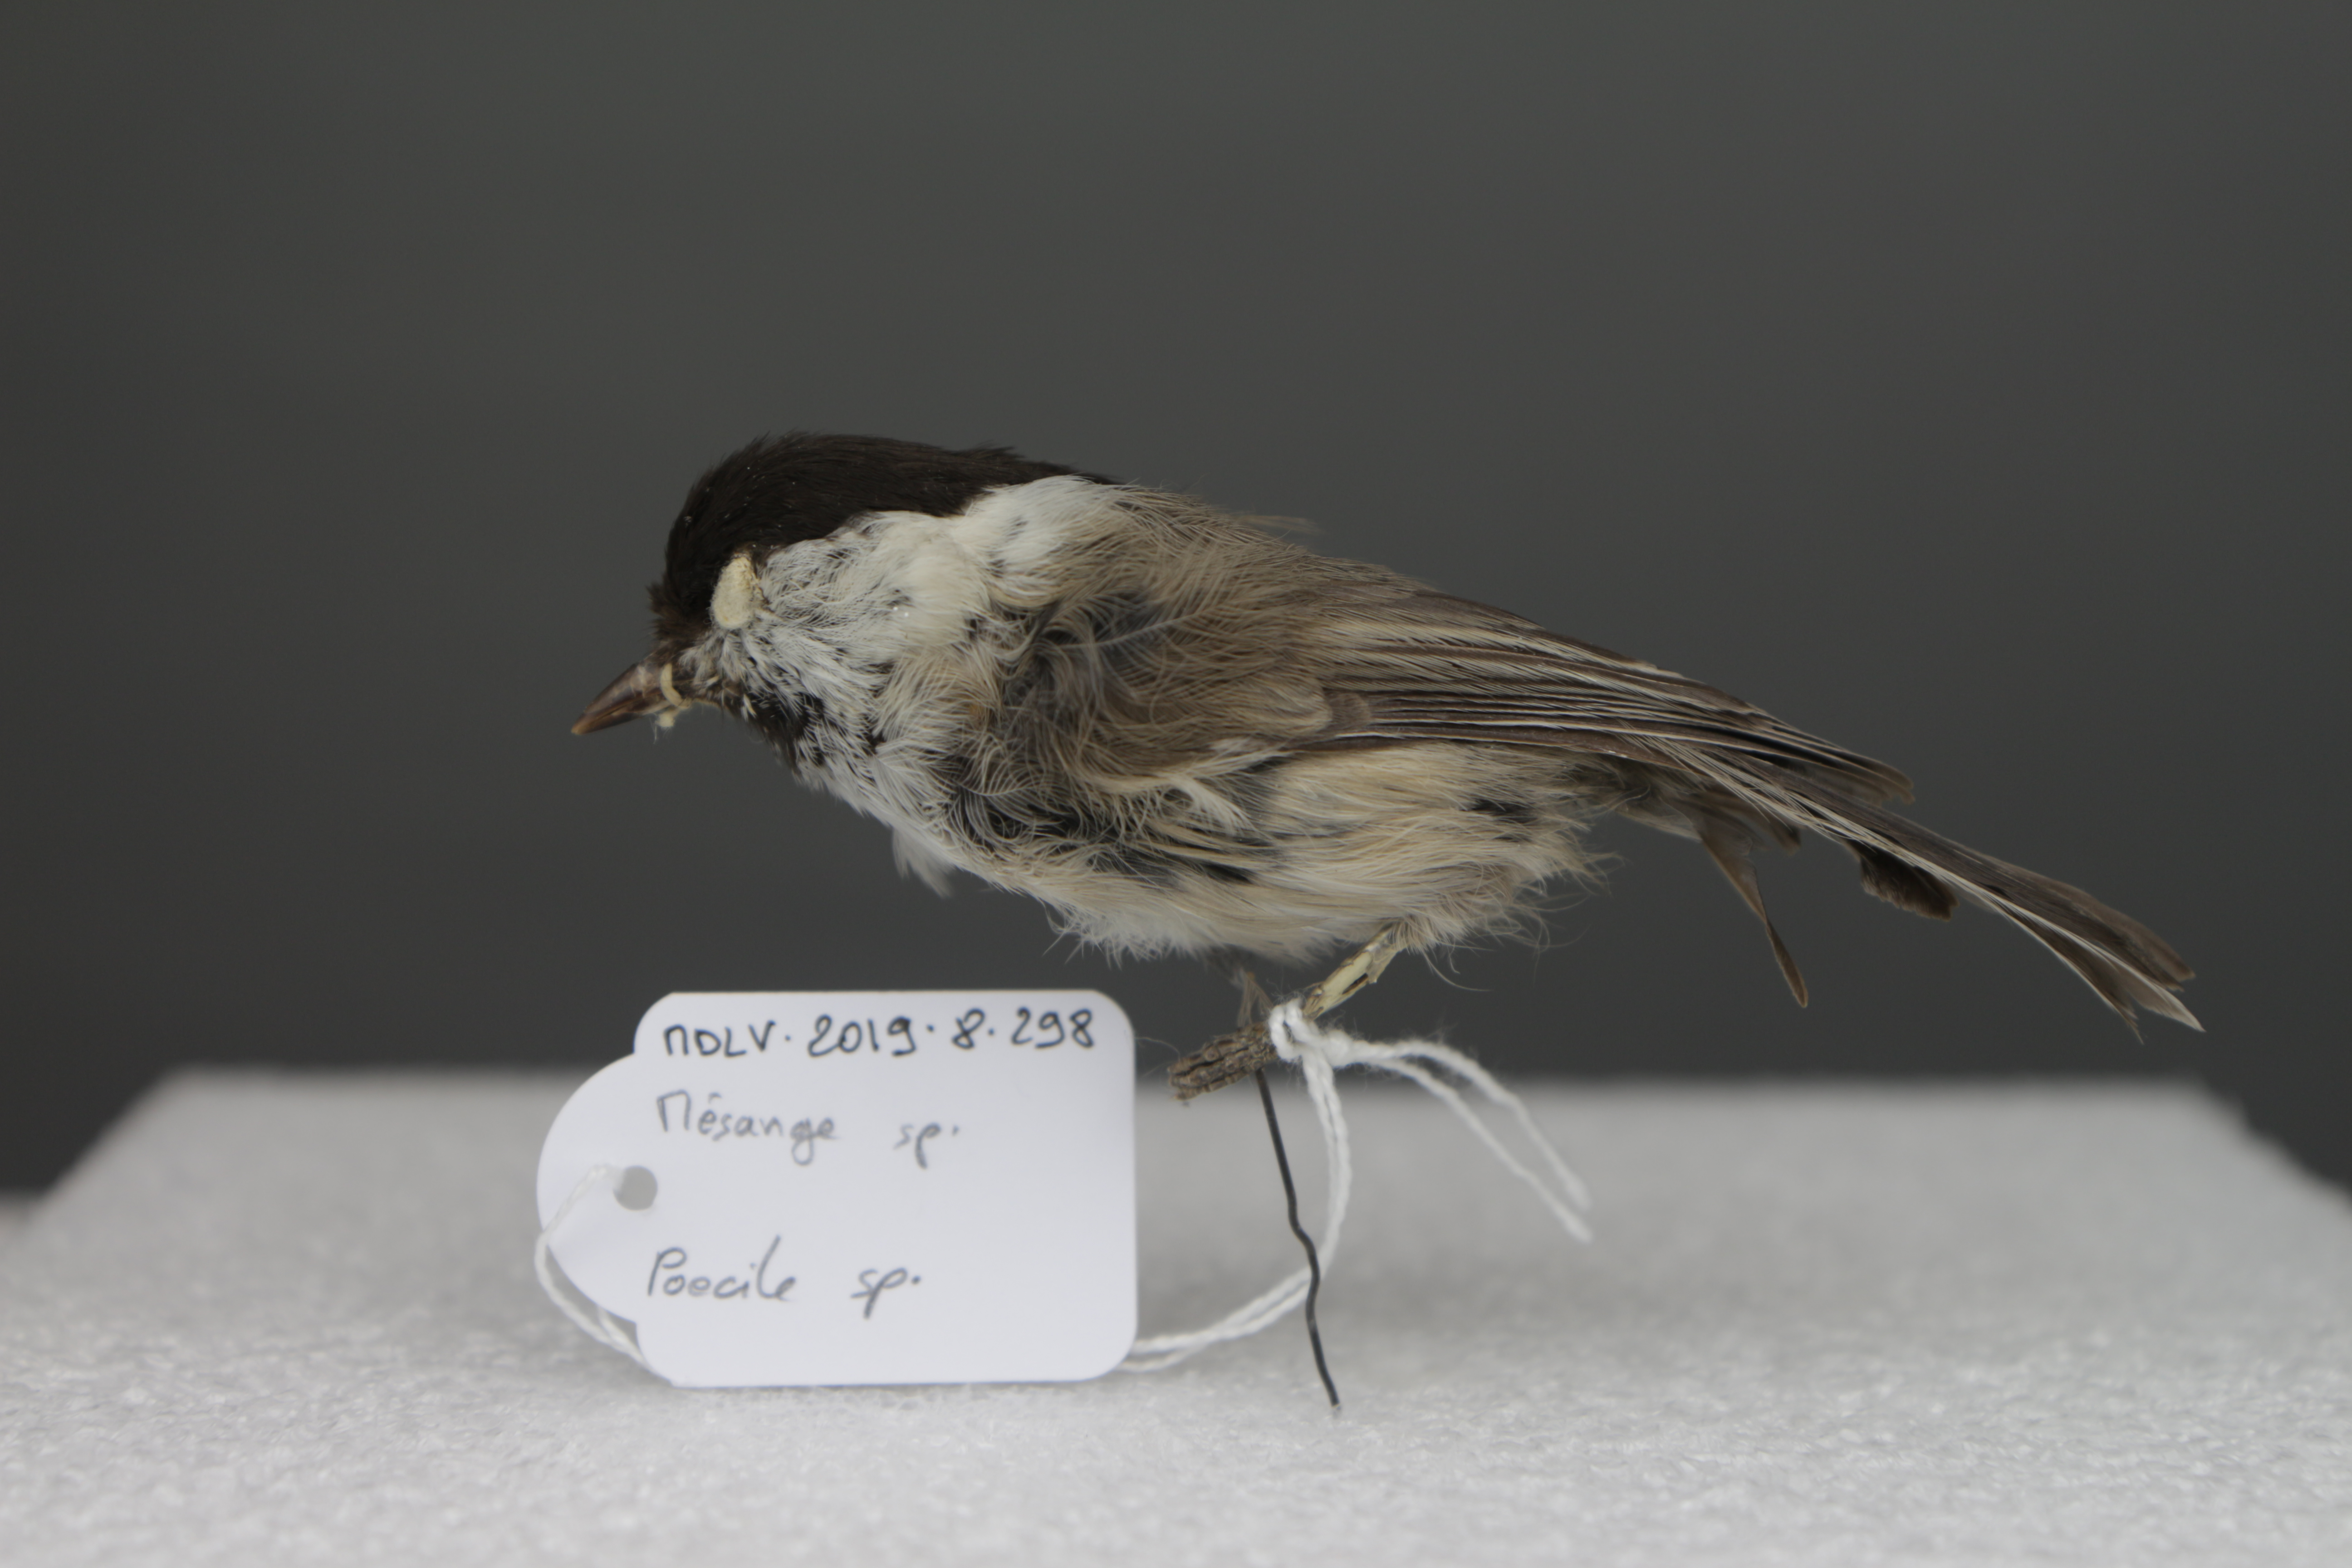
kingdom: Animalia
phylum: Chordata
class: Aves
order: Passeriformes
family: Paridae
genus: Poecile
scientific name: Poecile
